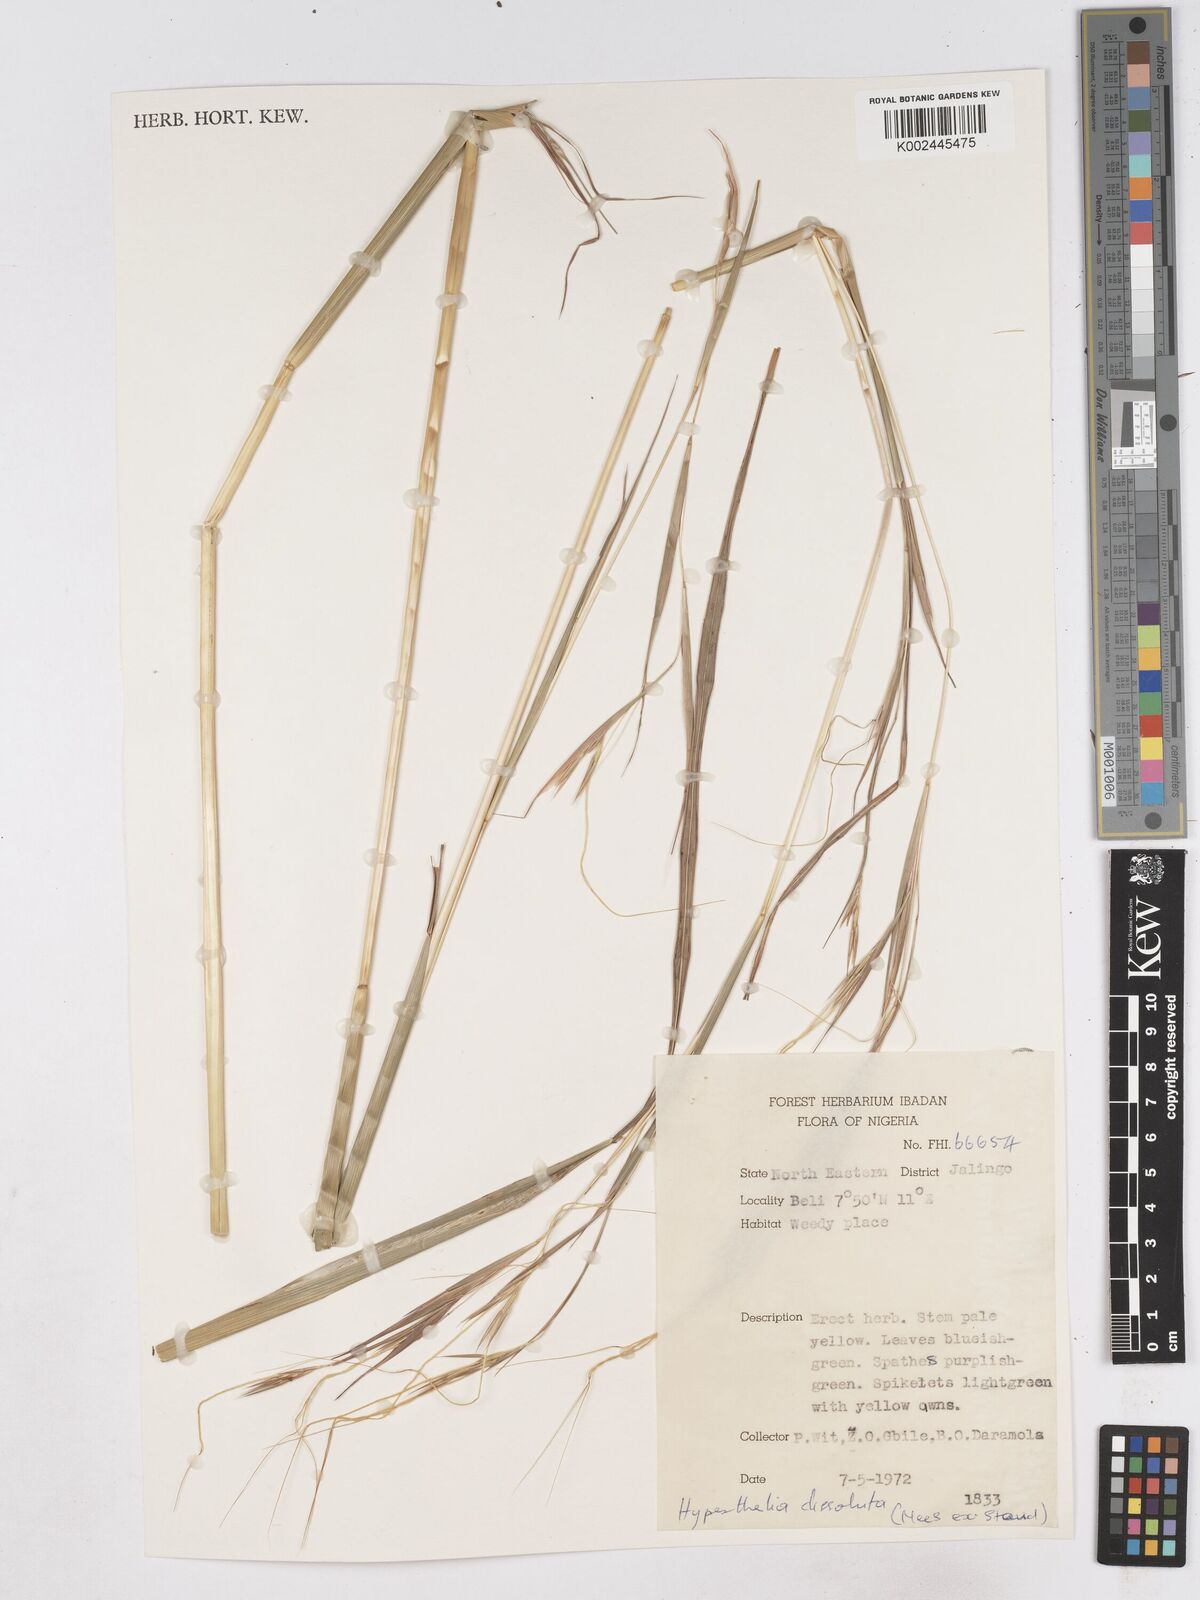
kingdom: Plantae
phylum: Tracheophyta
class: Liliopsida
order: Poales
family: Poaceae
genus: Hyperthelia
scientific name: Hyperthelia dissoluta
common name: Yellow thatching grass
